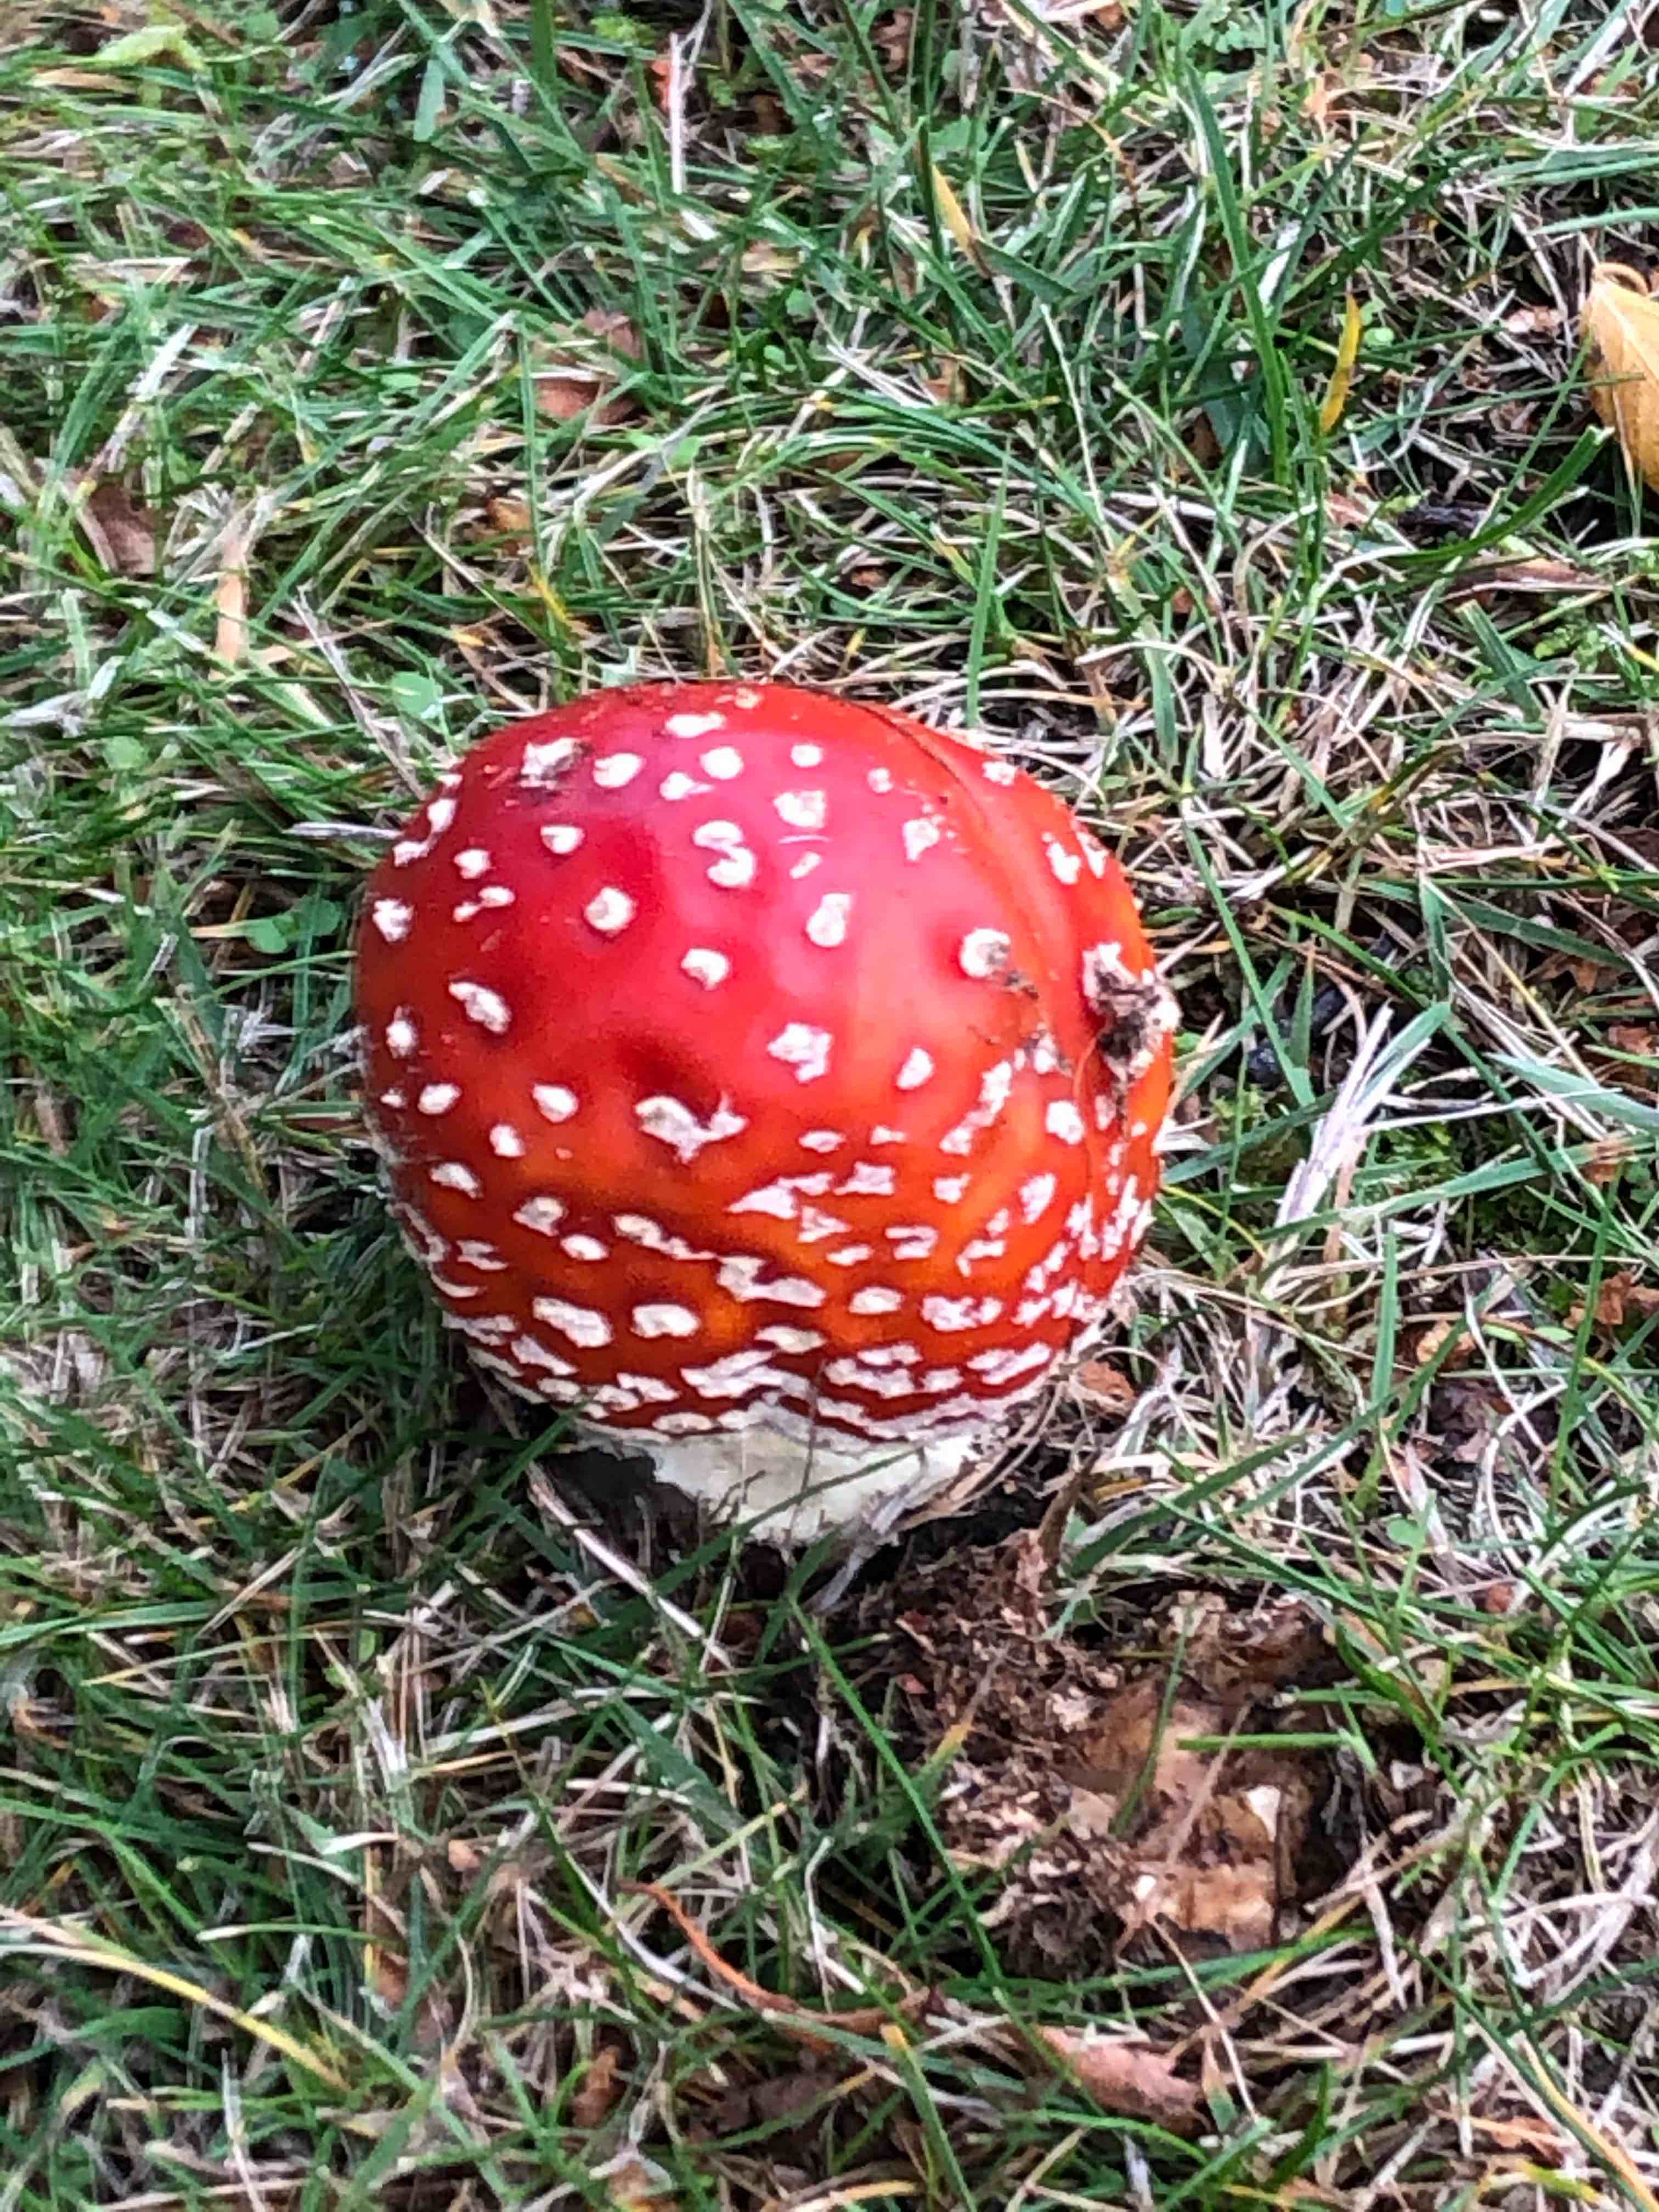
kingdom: Fungi
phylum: Basidiomycota
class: Agaricomycetes
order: Agaricales
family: Amanitaceae
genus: Amanita
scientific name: Amanita muscaria
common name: rød fluesvamp
